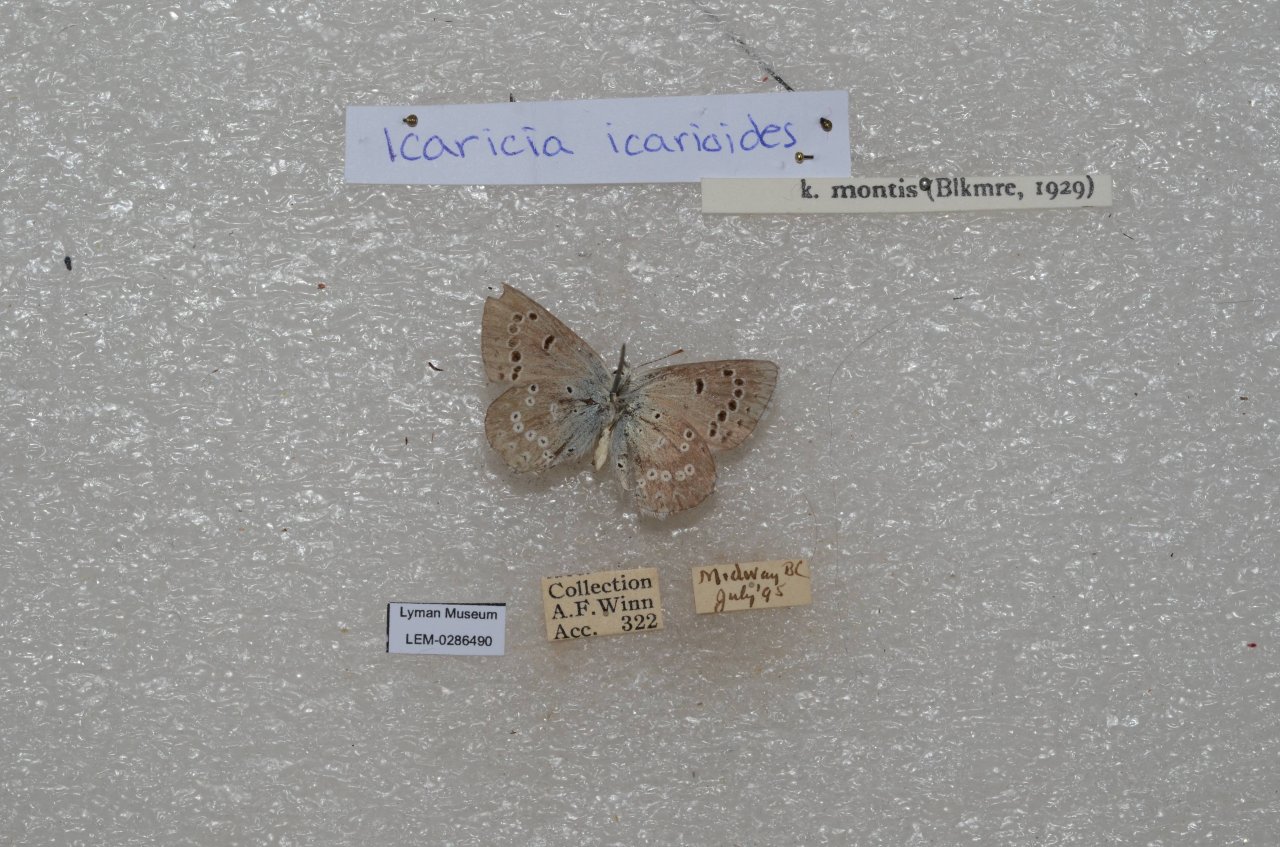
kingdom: Animalia
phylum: Arthropoda
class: Insecta
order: Lepidoptera
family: Lycaenidae
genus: Icaricia
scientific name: Icaricia icarioides
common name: Boisduval's Blue
